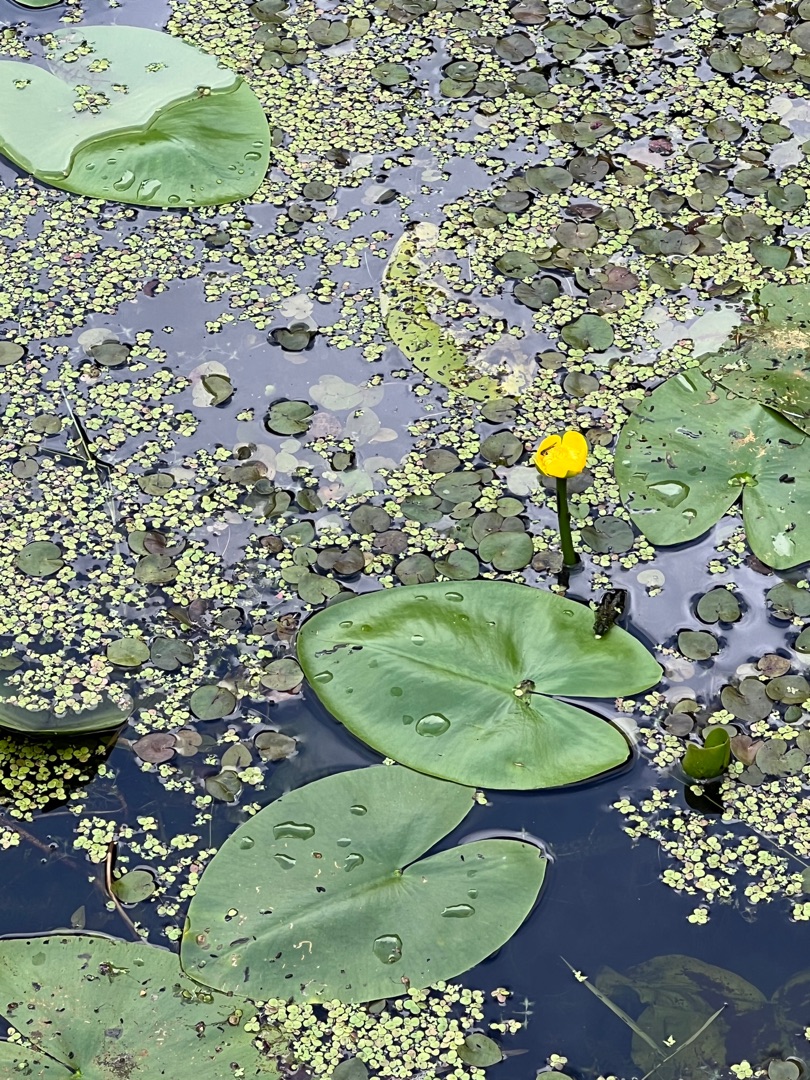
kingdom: Plantae
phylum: Tracheophyta
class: Magnoliopsida
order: Nymphaeales
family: Nymphaeaceae
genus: Nuphar
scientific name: Nuphar lutea
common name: Gul åkande
